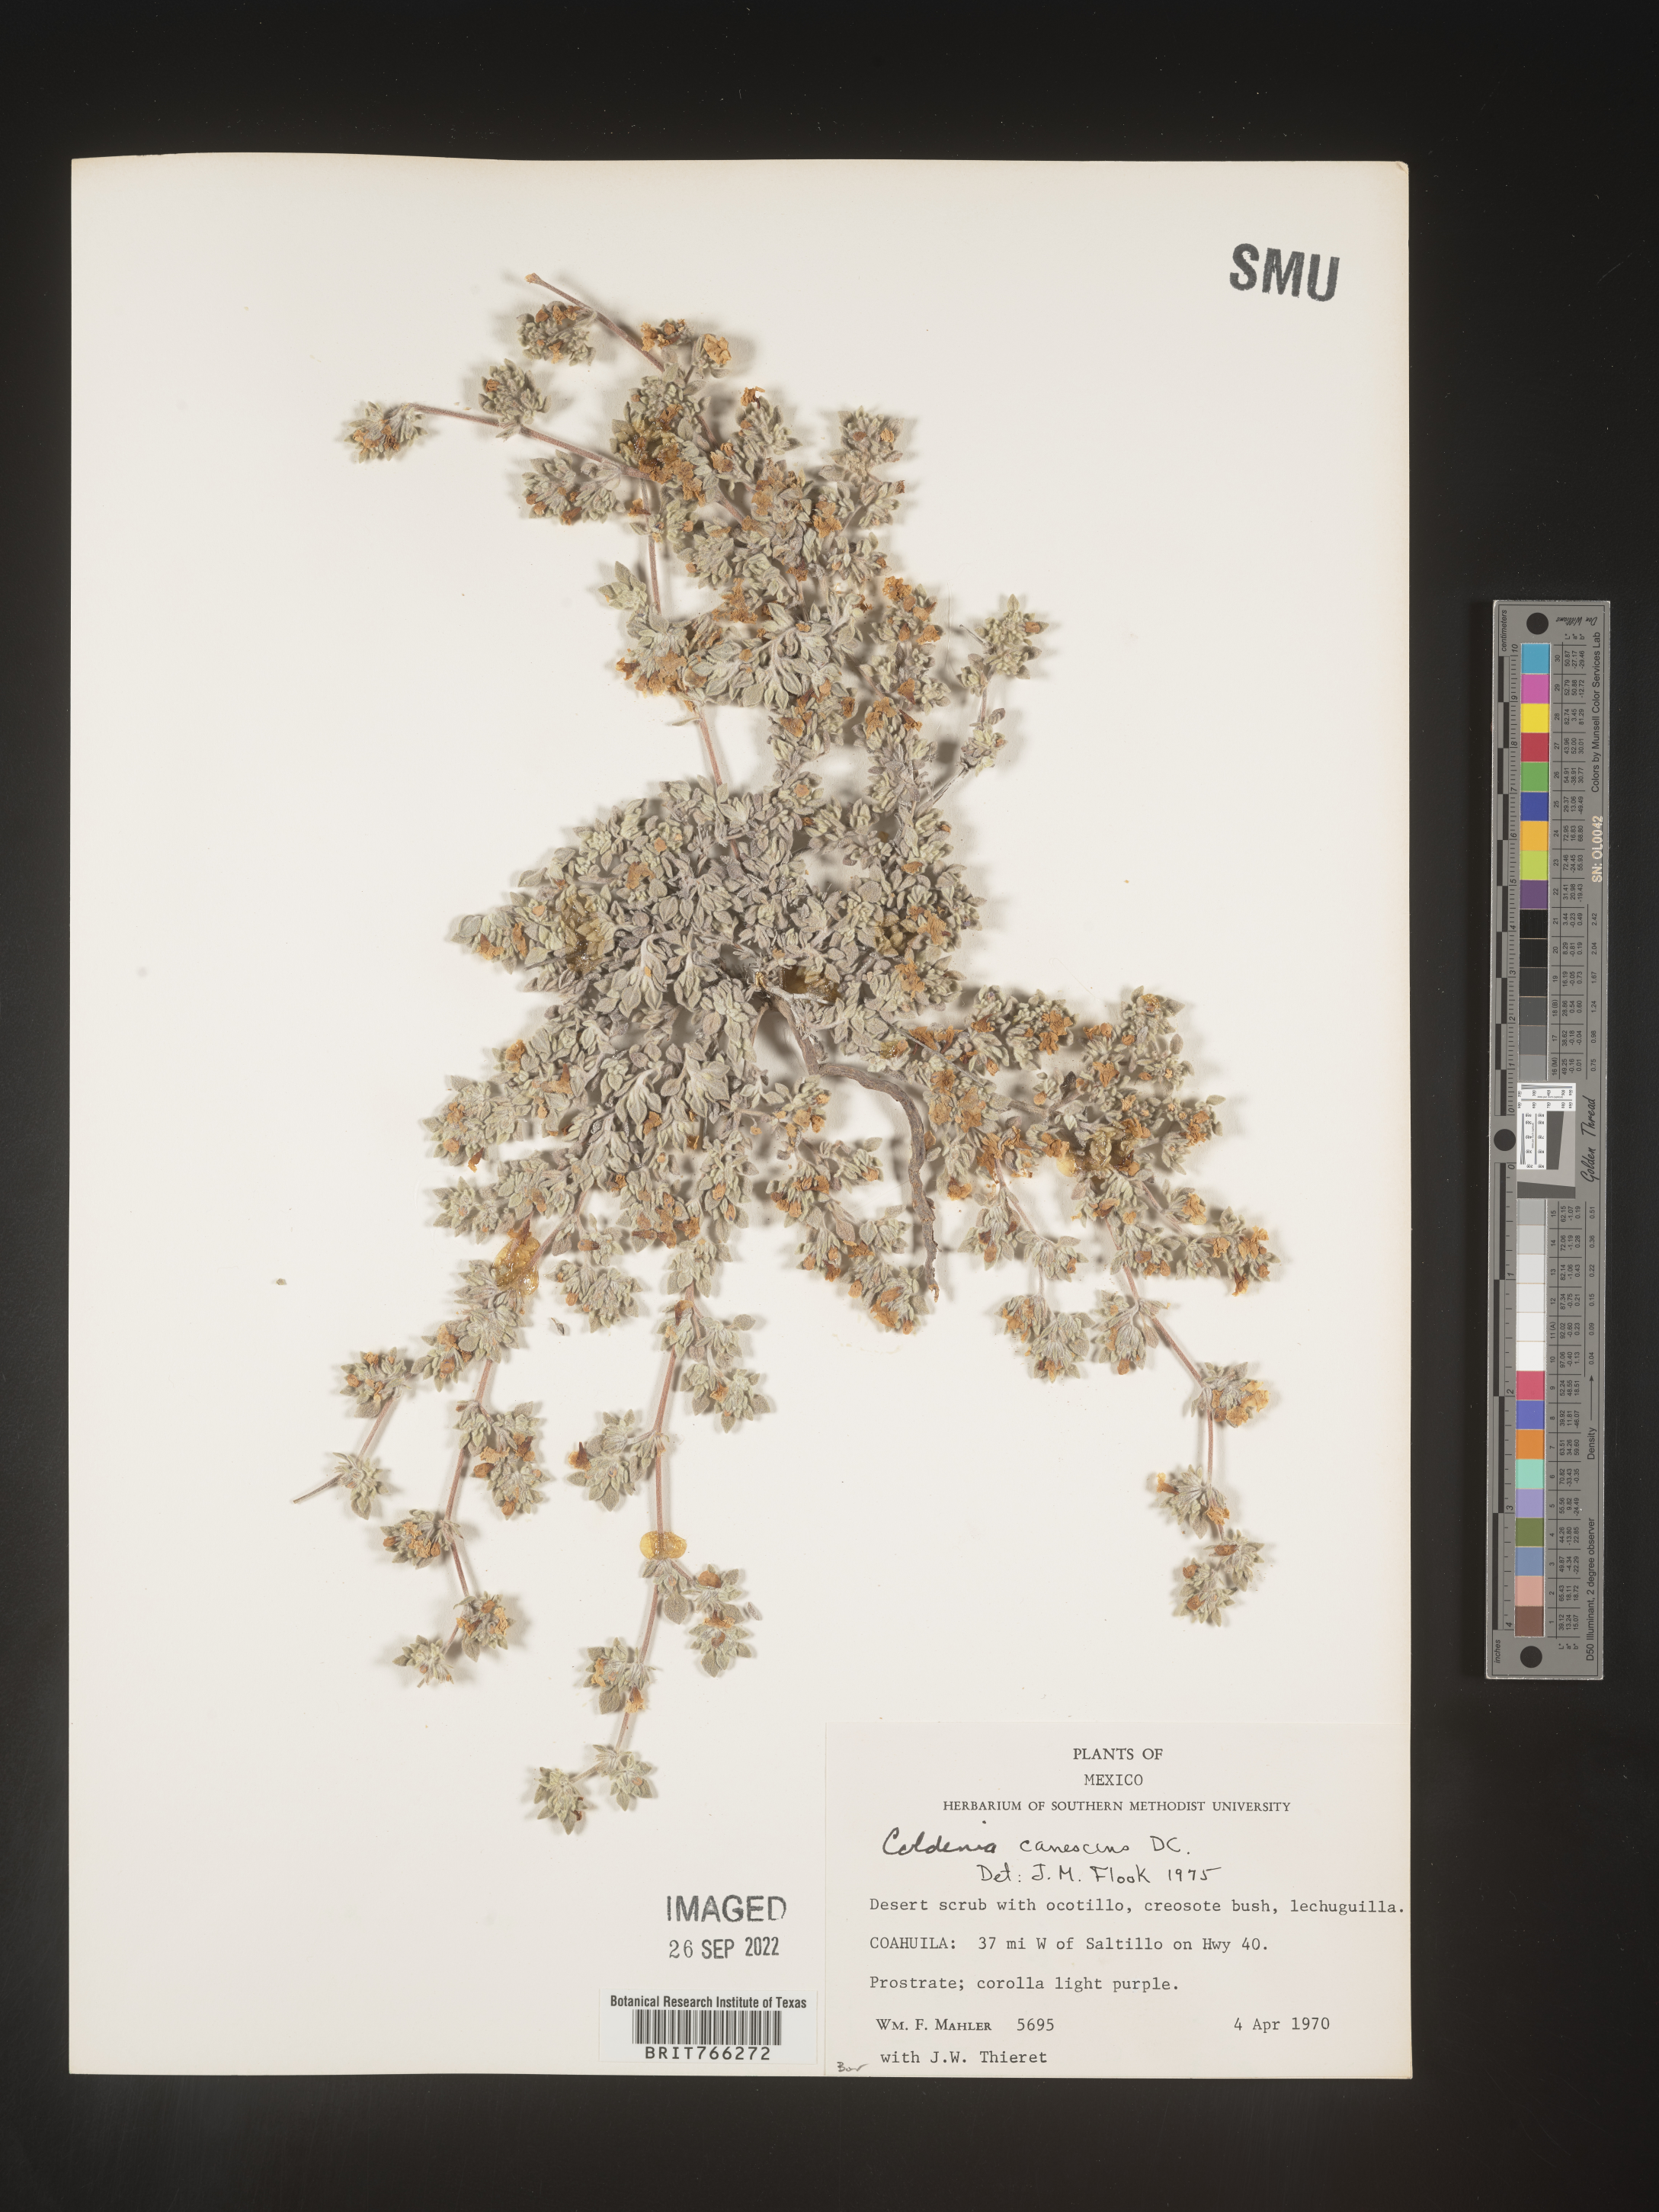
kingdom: Plantae
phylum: Tracheophyta
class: Magnoliopsida
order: Boraginales
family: Coldeniaceae
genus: Coldenia
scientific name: Coldenia
